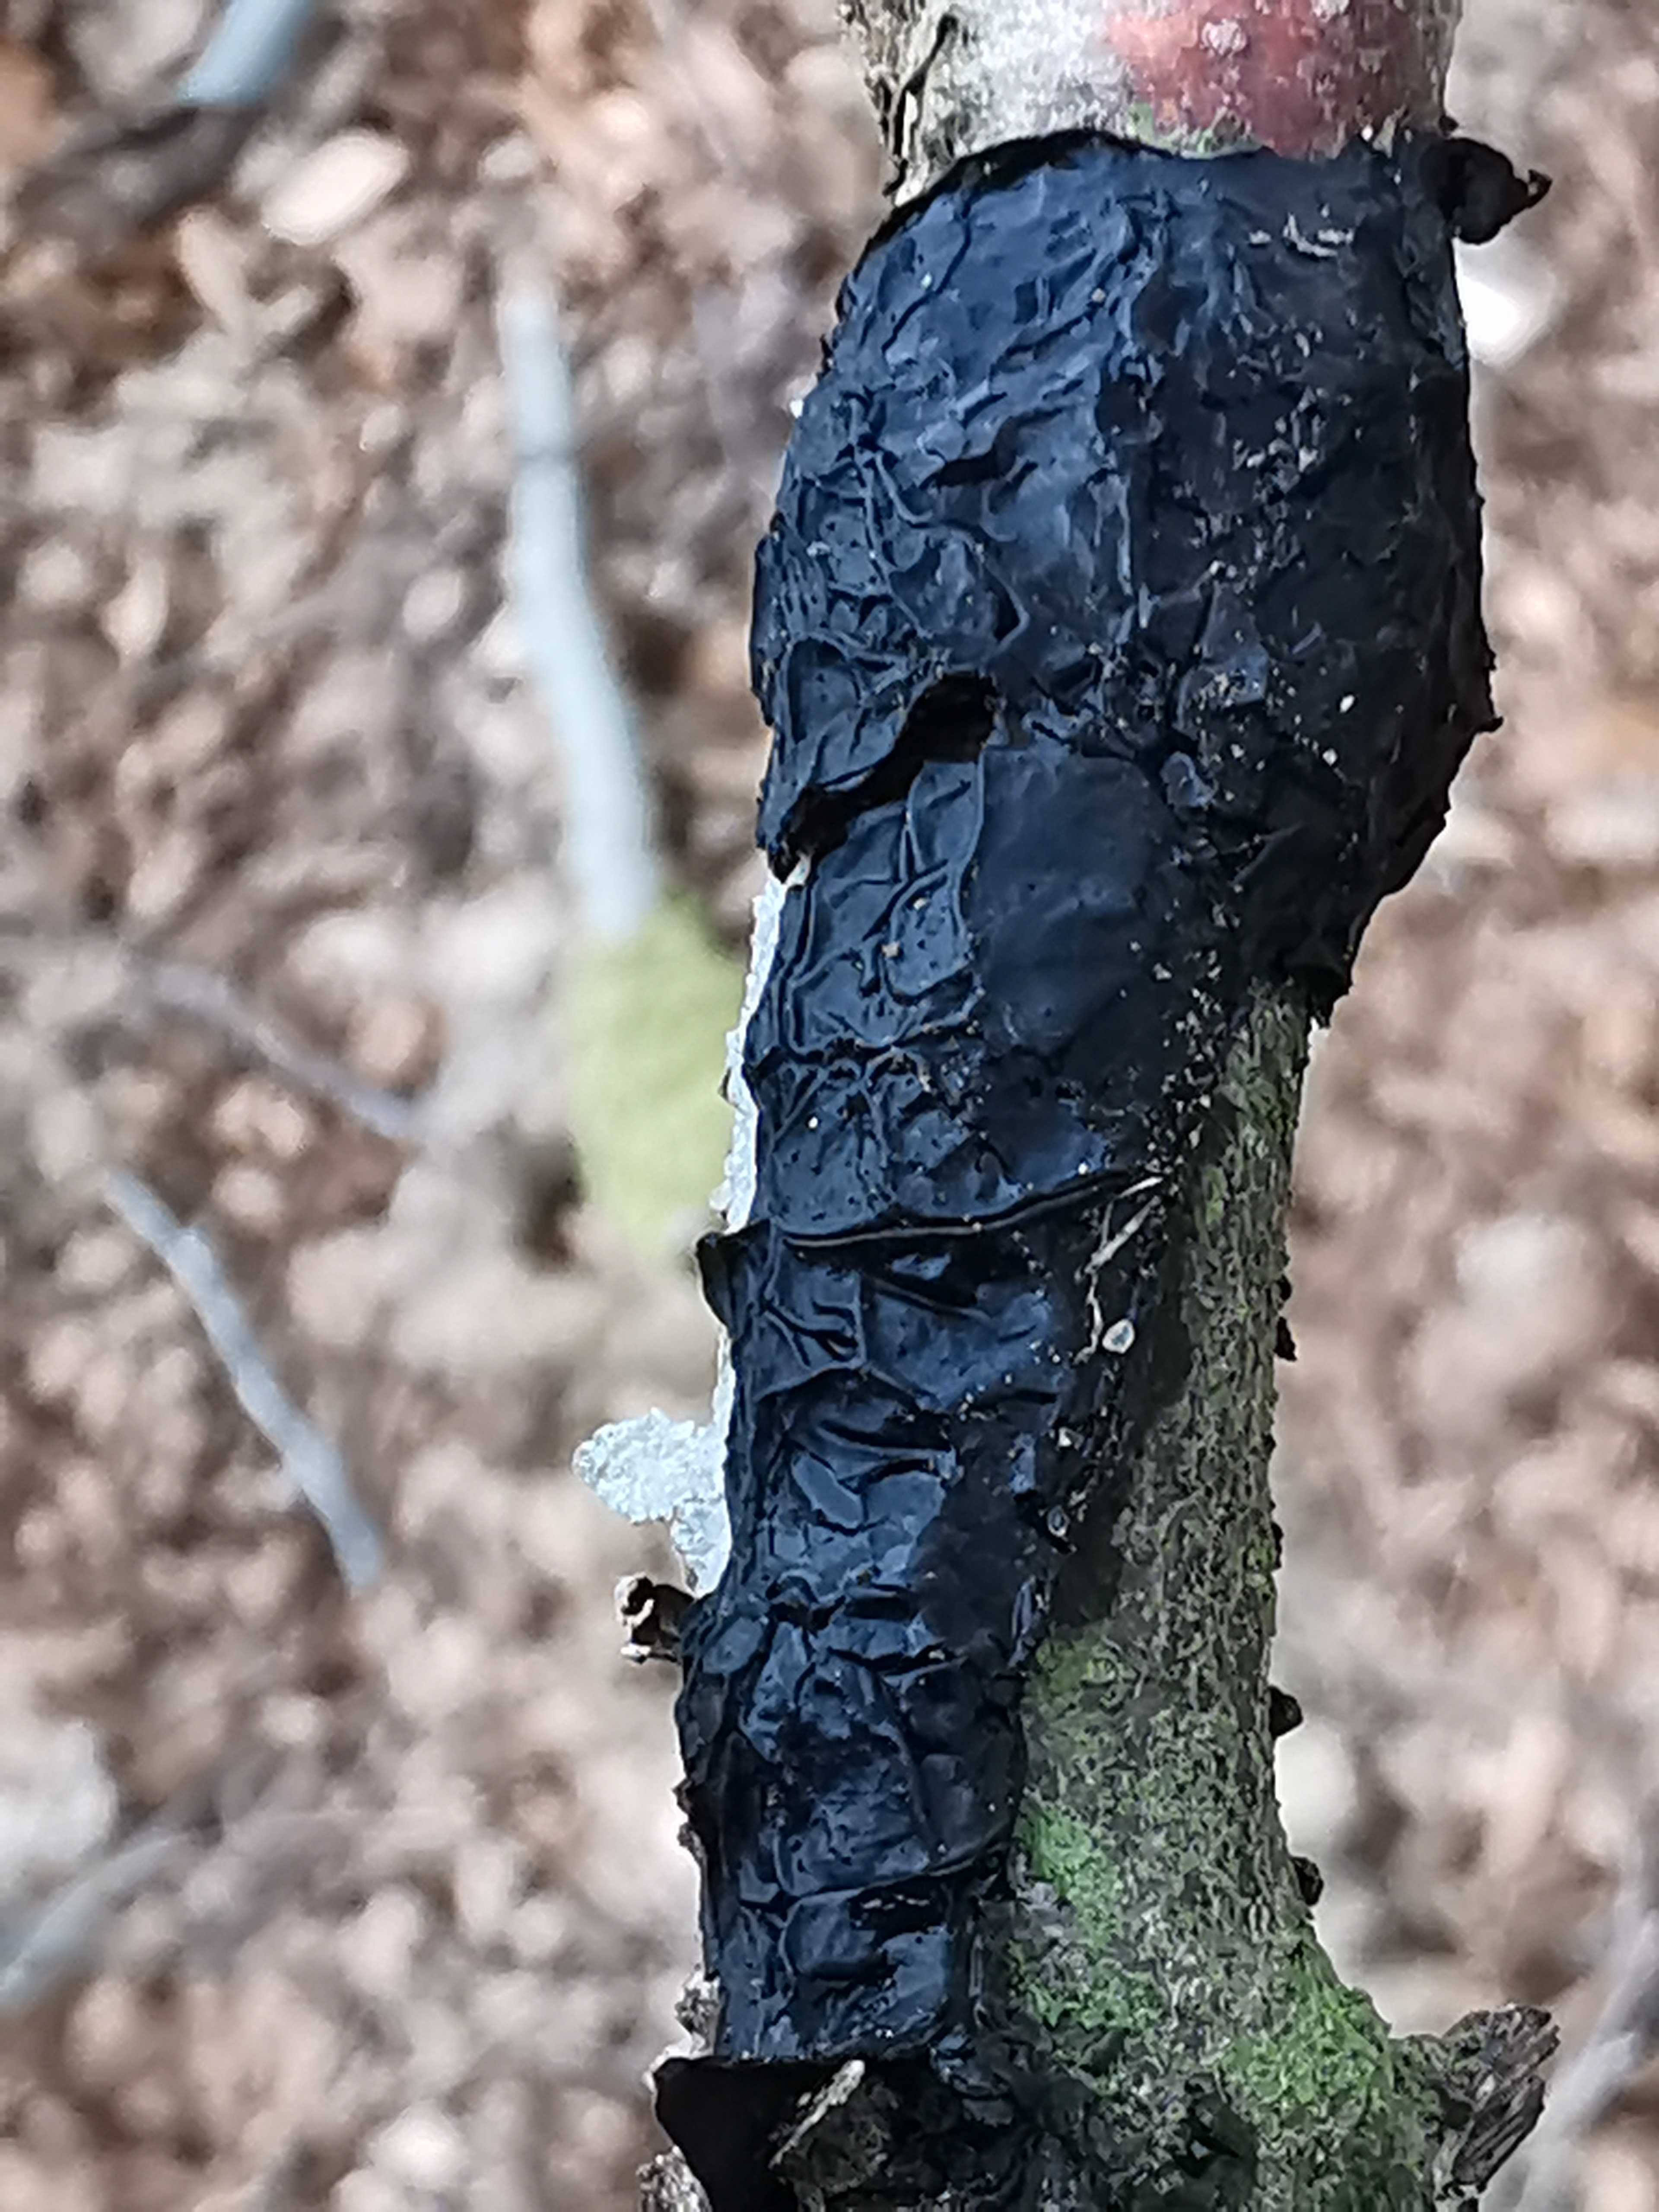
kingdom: Fungi
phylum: Basidiomycota
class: Agaricomycetes
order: Auriculariales
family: Auriculariaceae
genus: Exidia
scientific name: Exidia nigricans
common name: almindelig bævretop
